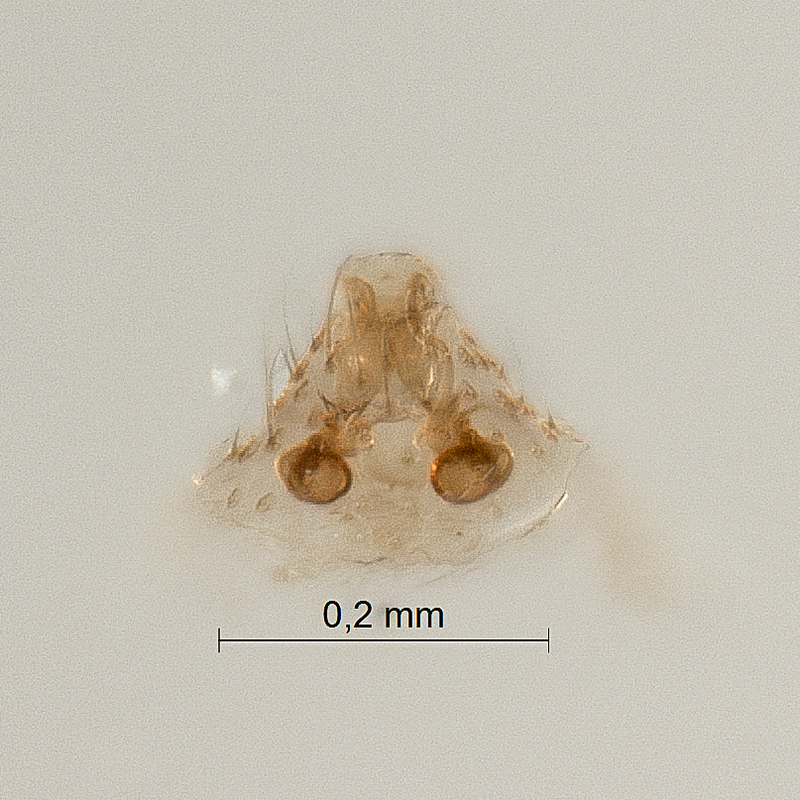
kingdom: Animalia
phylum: Arthropoda
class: Arachnida
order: Araneae
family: Linyphiidae
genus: Palliduphantes
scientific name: Palliduphantes ericaeus
